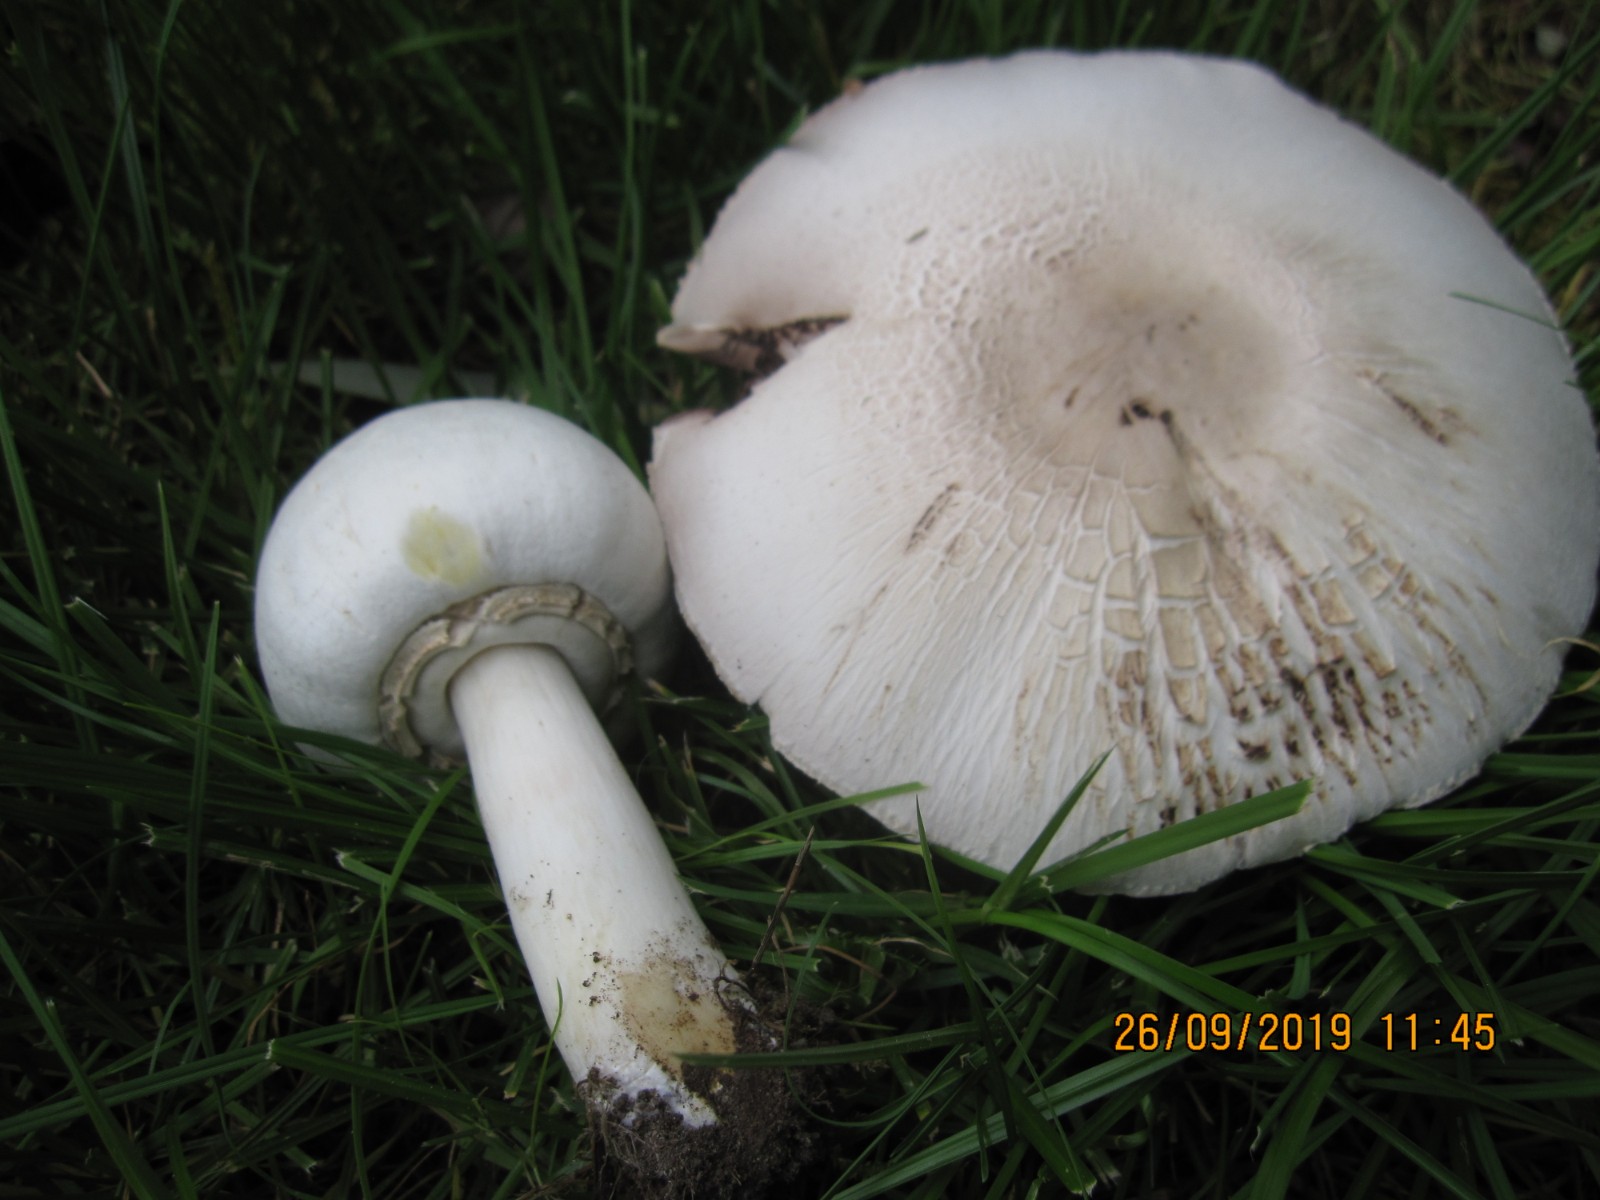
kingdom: Fungi
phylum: Basidiomycota
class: Agaricomycetes
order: Agaricales
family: Agaricaceae
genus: Agaricus
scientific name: Agaricus xanthodermus
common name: karbol-champignon
